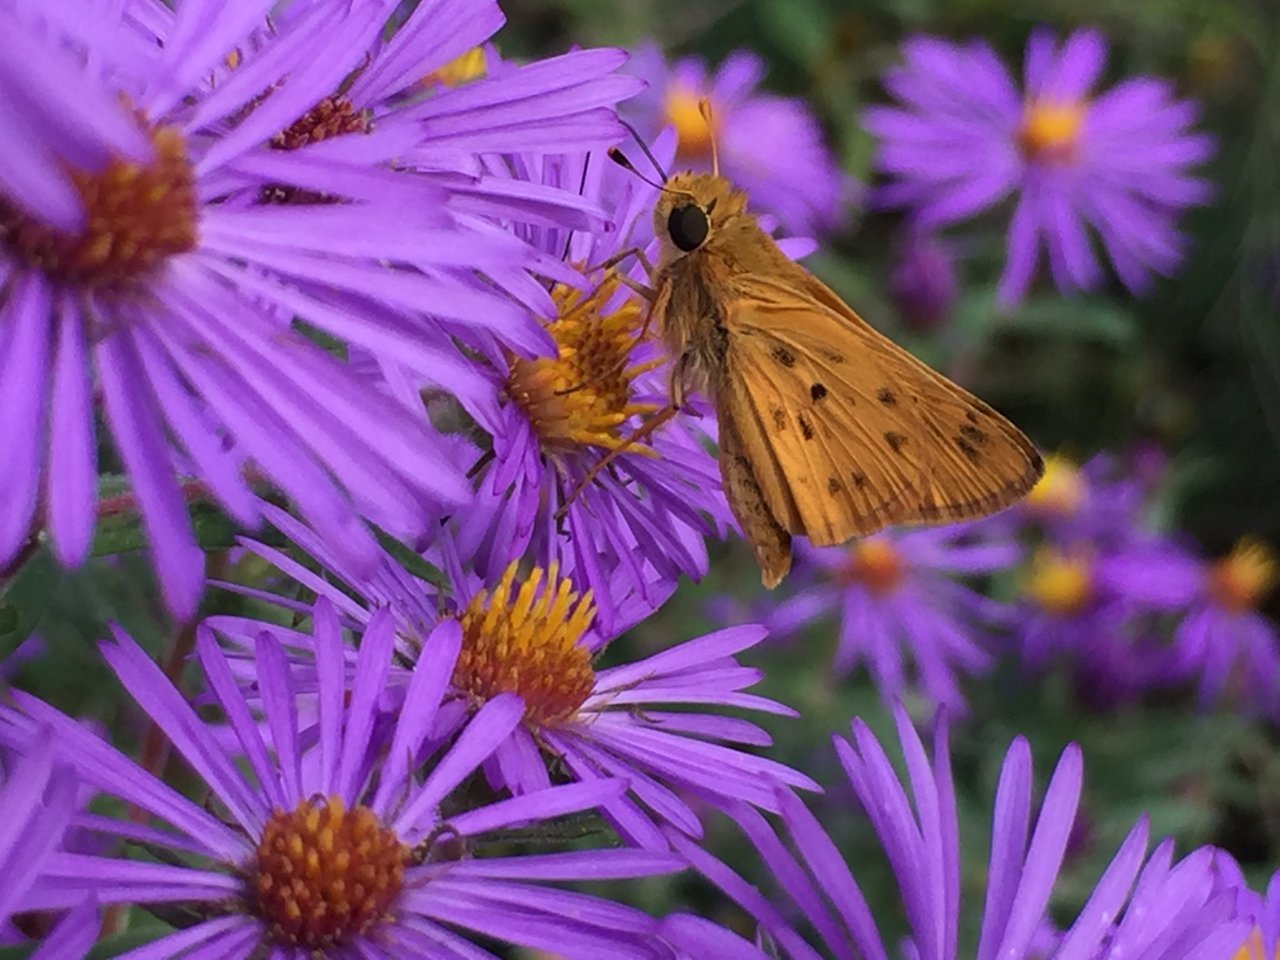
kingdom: Animalia
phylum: Arthropoda
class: Insecta
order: Lepidoptera
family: Hesperiidae
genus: Hylephila
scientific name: Hylephila phyleus
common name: Fiery Skipper
